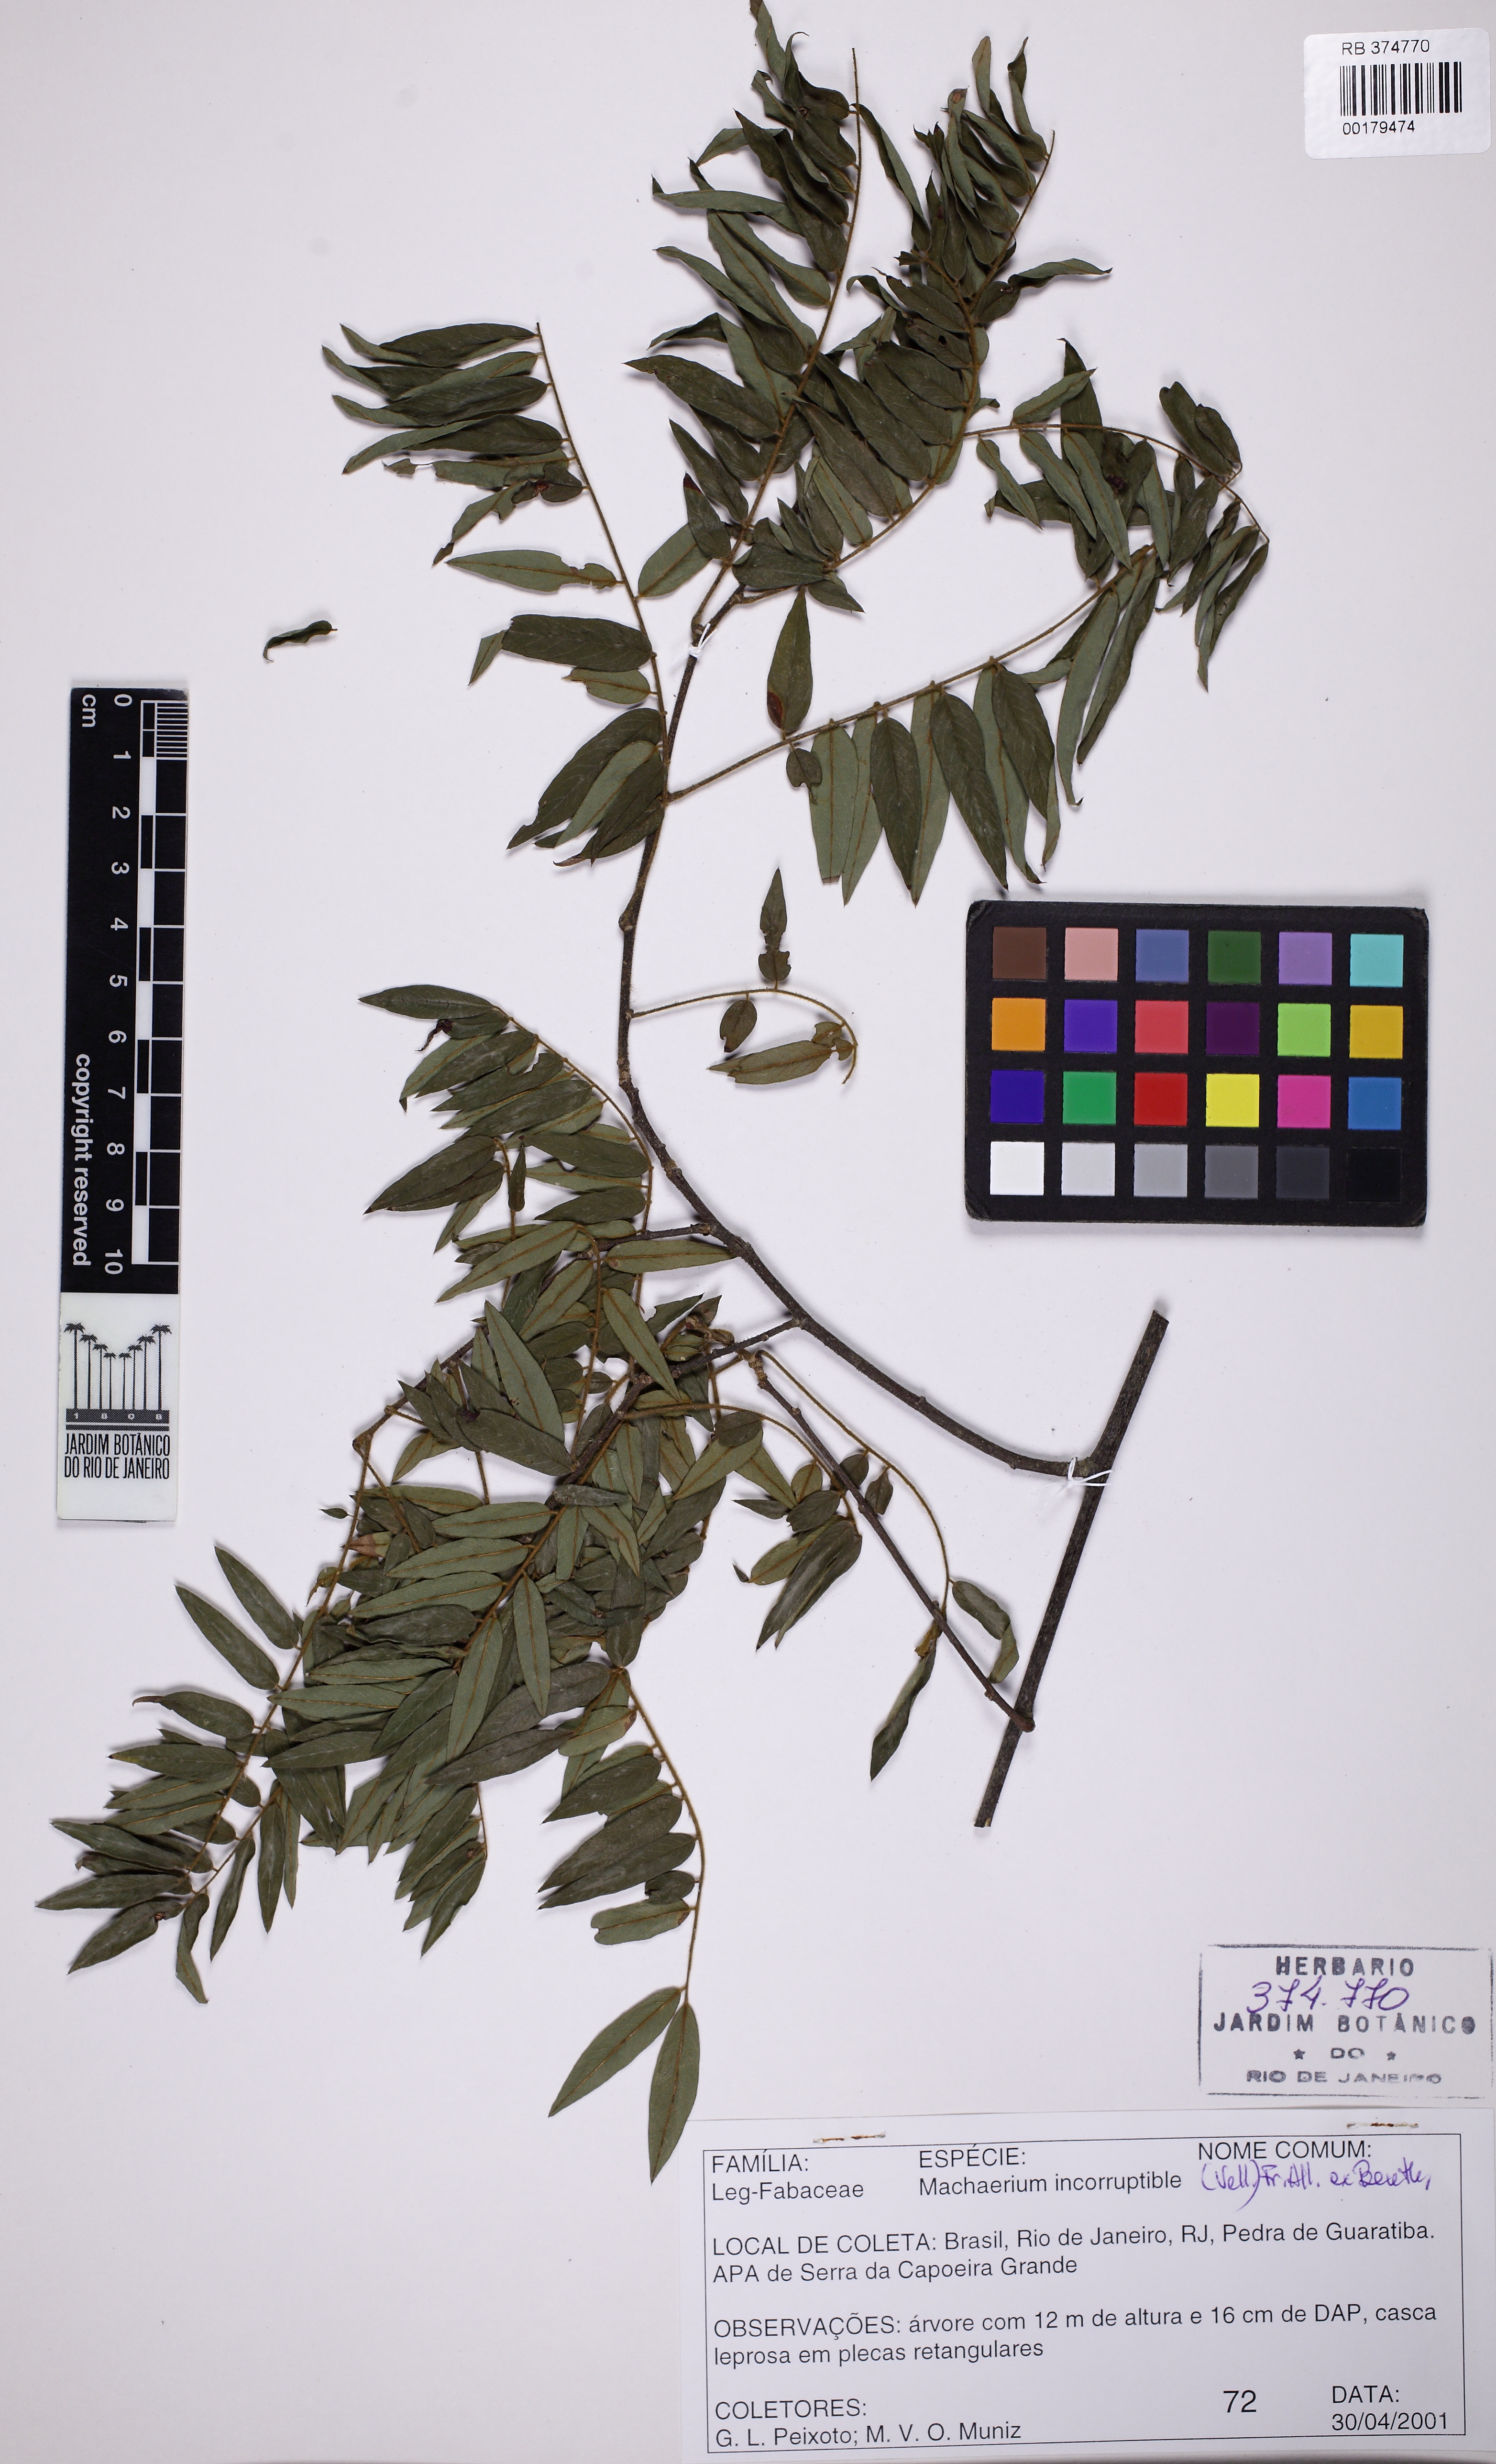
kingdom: Plantae
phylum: Tracheophyta
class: Magnoliopsida
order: Fabales
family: Fabaceae
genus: Machaerium
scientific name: Machaerium incorruptibile
